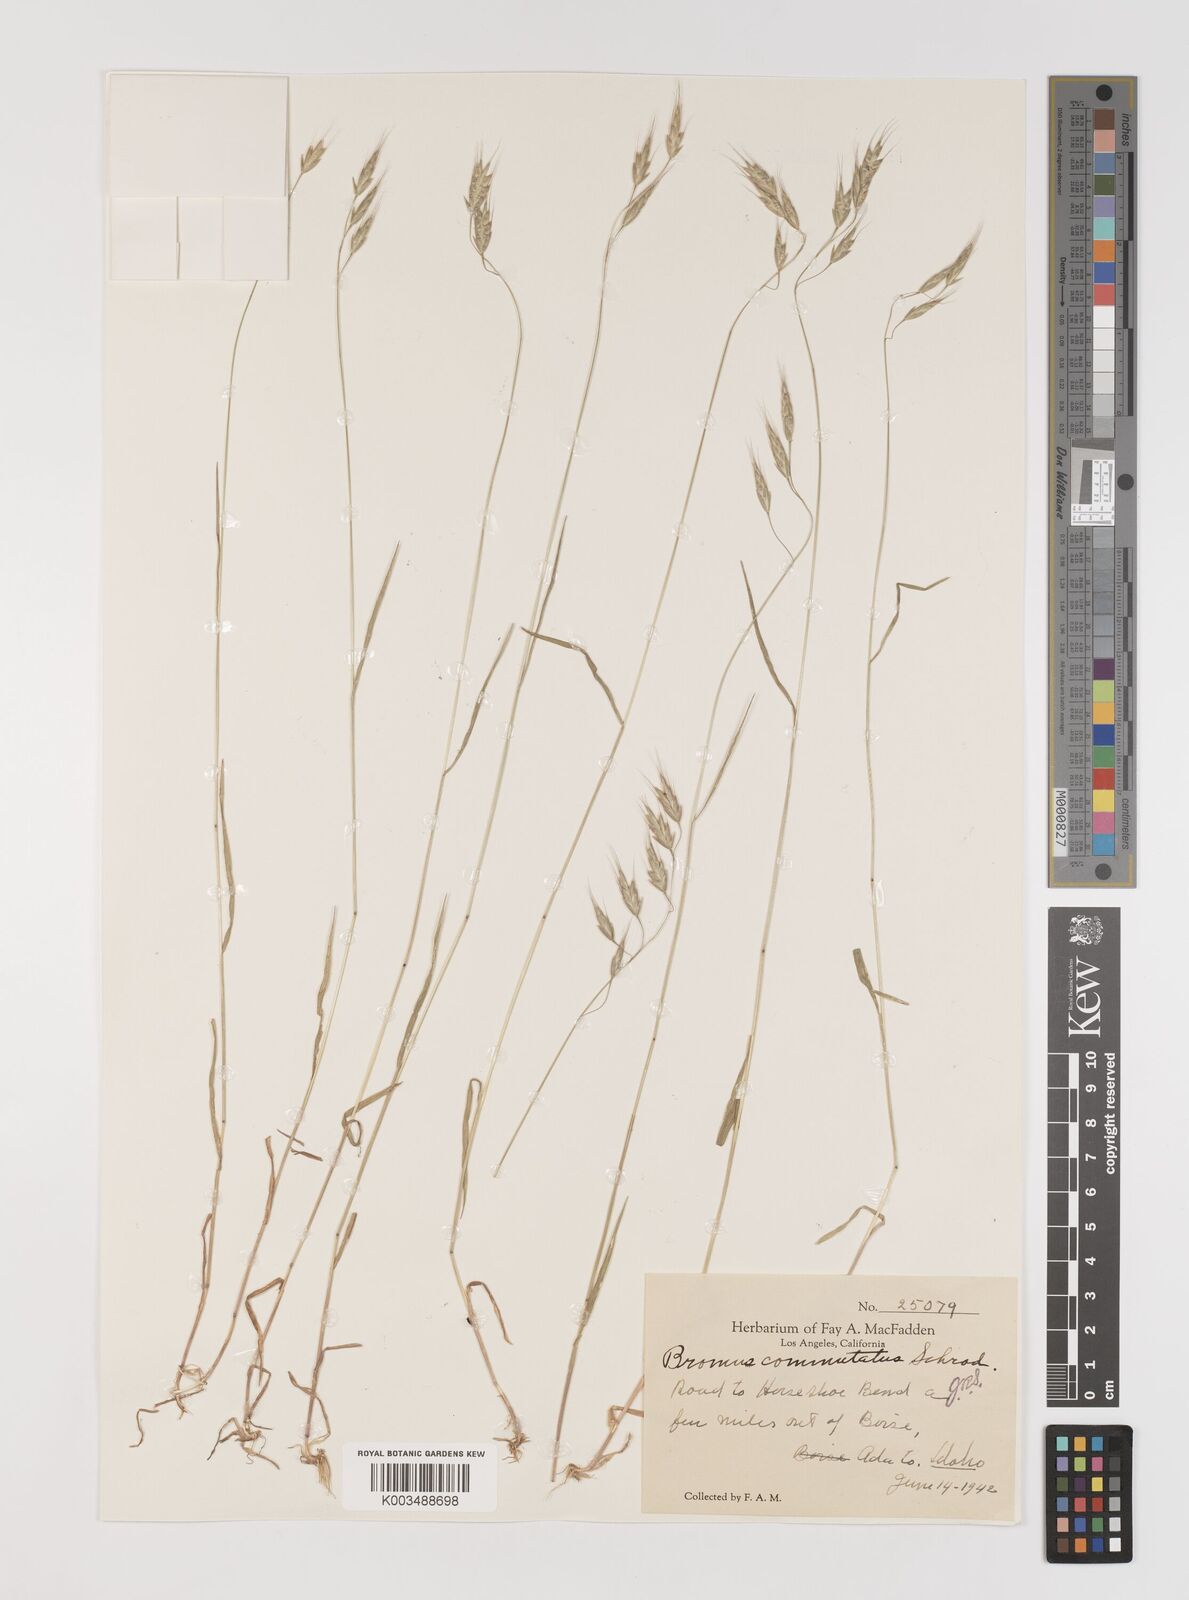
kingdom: Plantae
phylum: Tracheophyta
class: Liliopsida
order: Poales
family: Poaceae
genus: Bromus
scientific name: Bromus racemosus
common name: Bald brome
